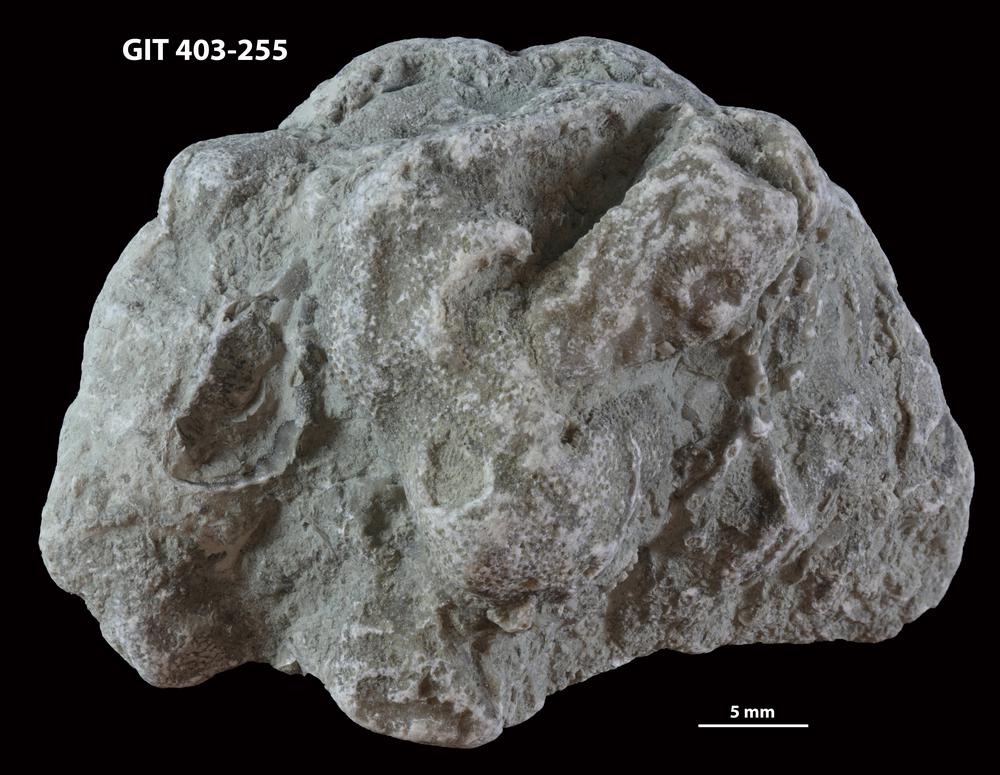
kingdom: Animalia
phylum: Bryozoa
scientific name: Bryozoa
